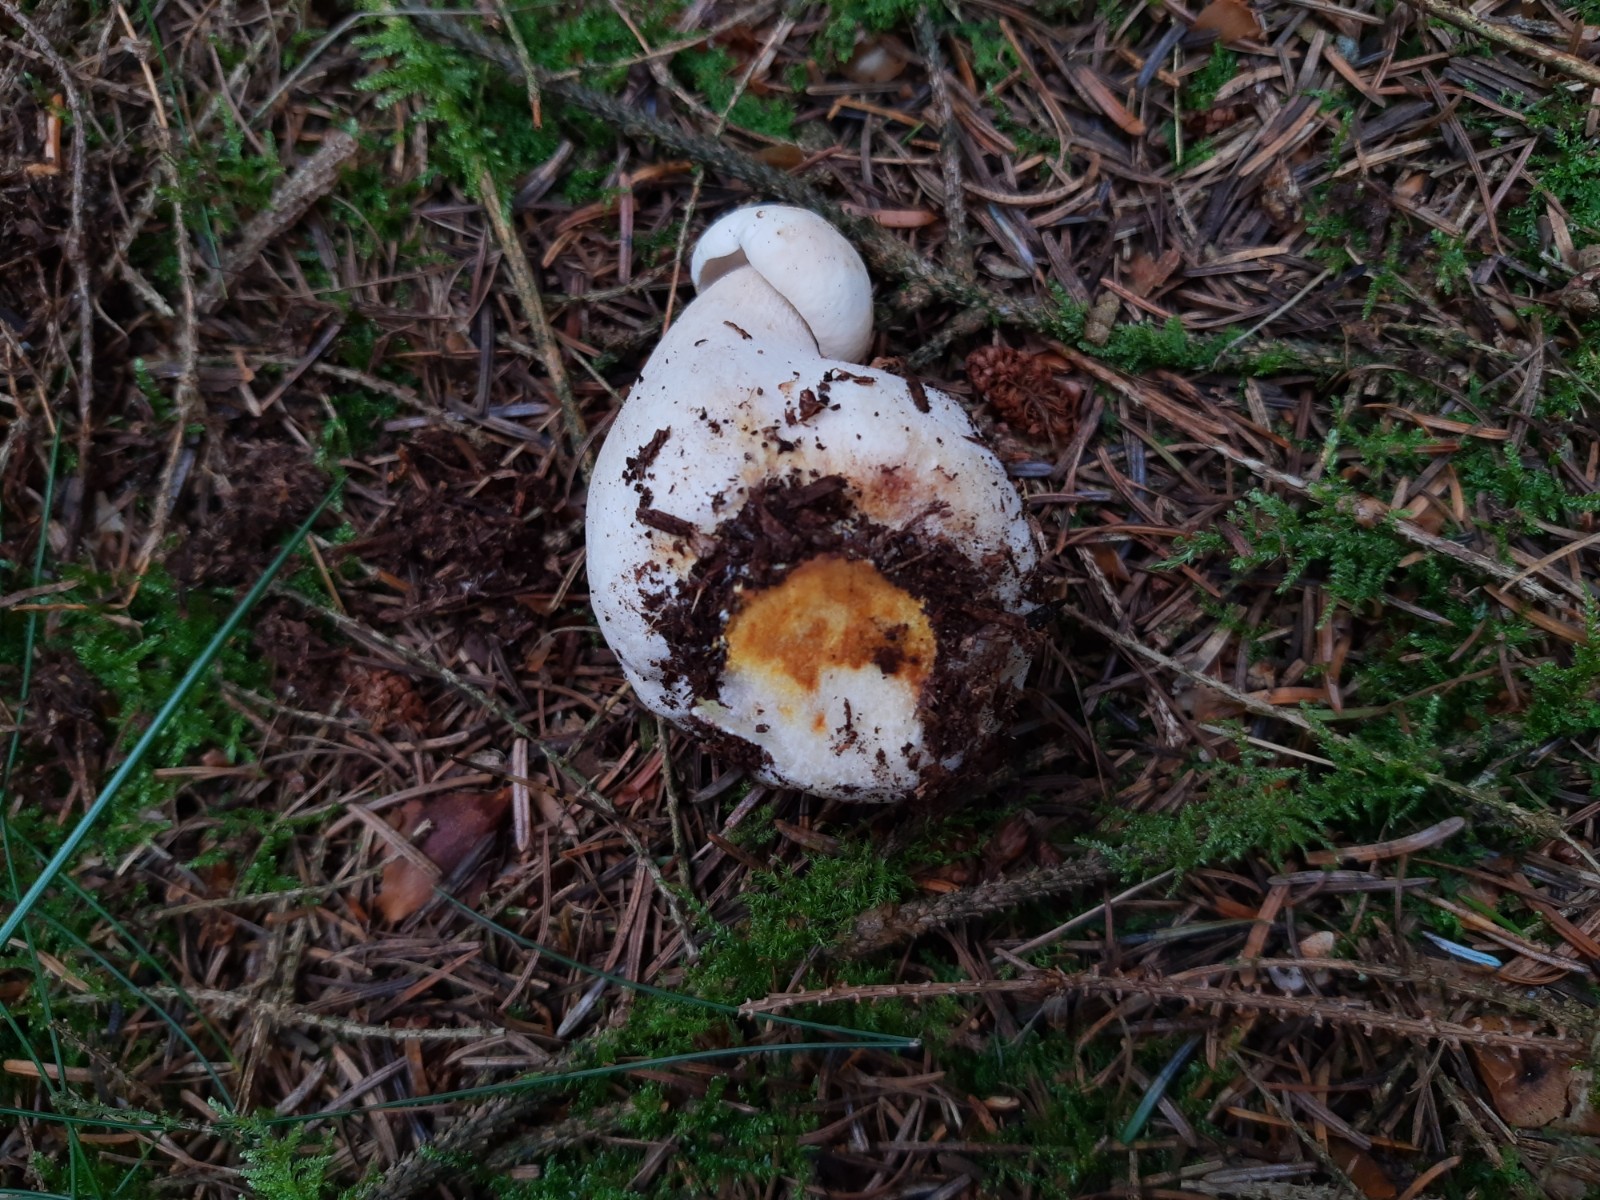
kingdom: Fungi
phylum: Ascomycota
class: Sordariomycetes
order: Hypocreales
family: Hypocreaceae
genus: Hypomyces
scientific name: Hypomyces chrysospermus
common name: gulskimmel-snylteskorpe
